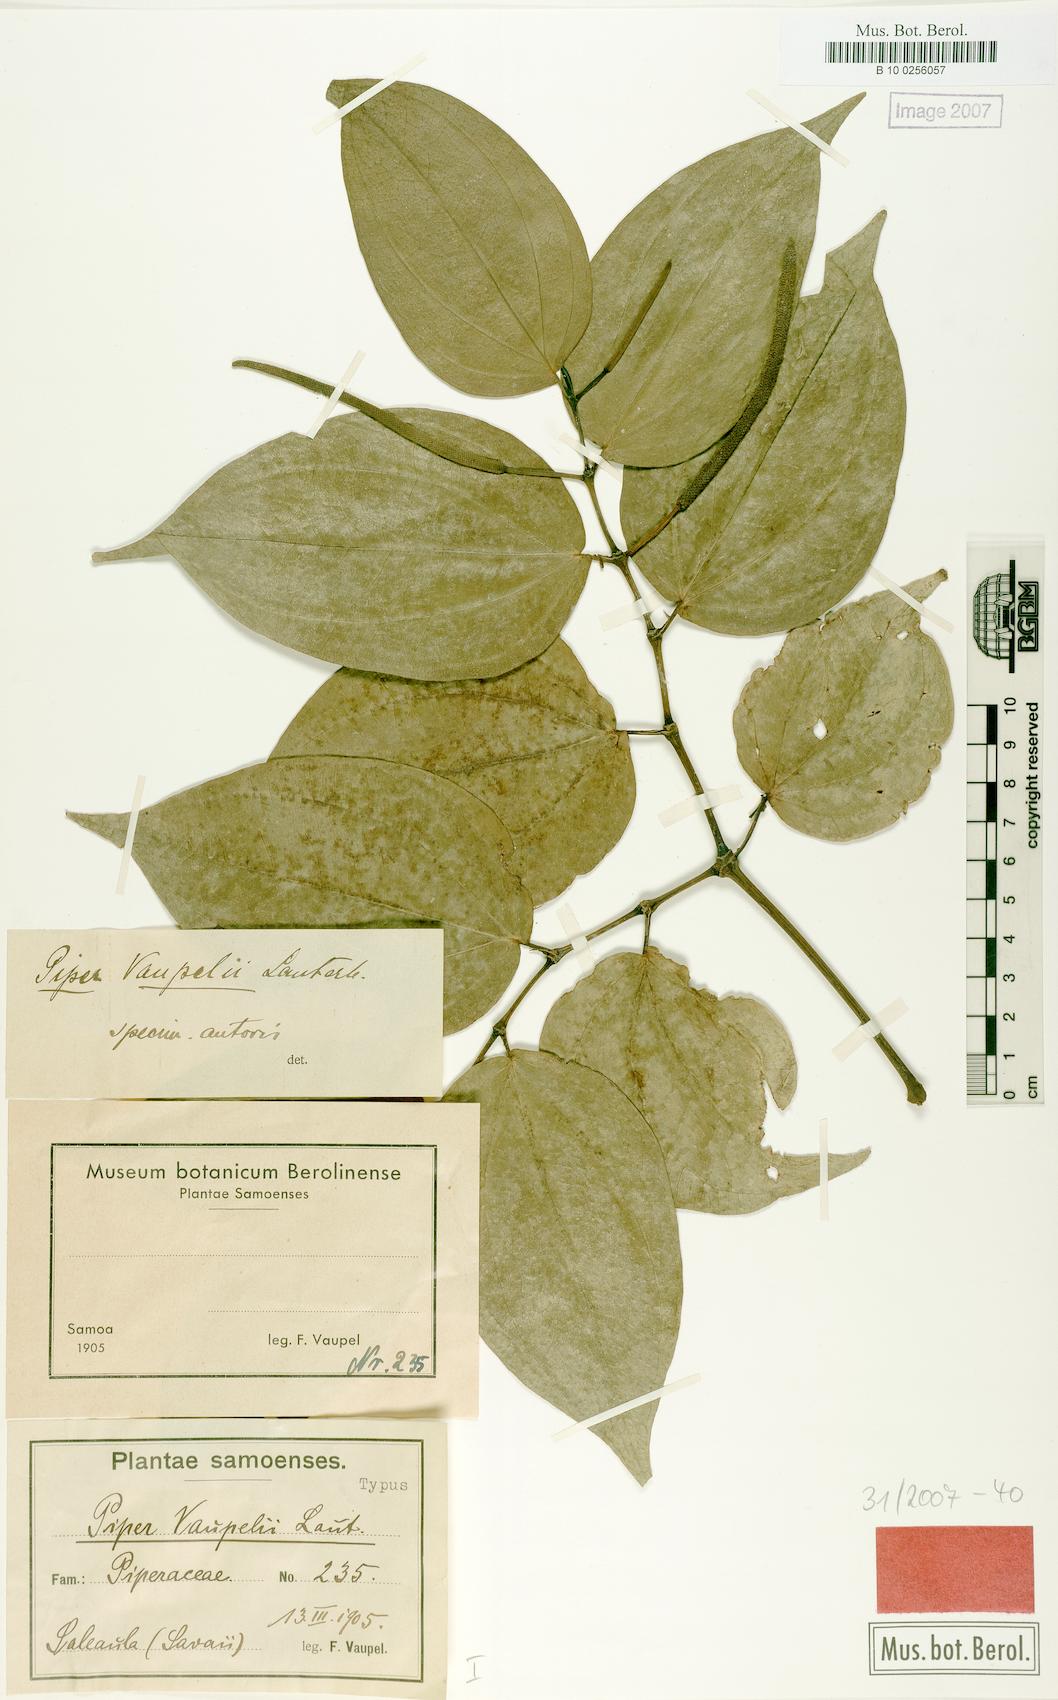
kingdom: Plantae
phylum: Tracheophyta
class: Magnoliopsida
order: Piperales
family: Piperaceae
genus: Piper
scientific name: Piper macropiper
